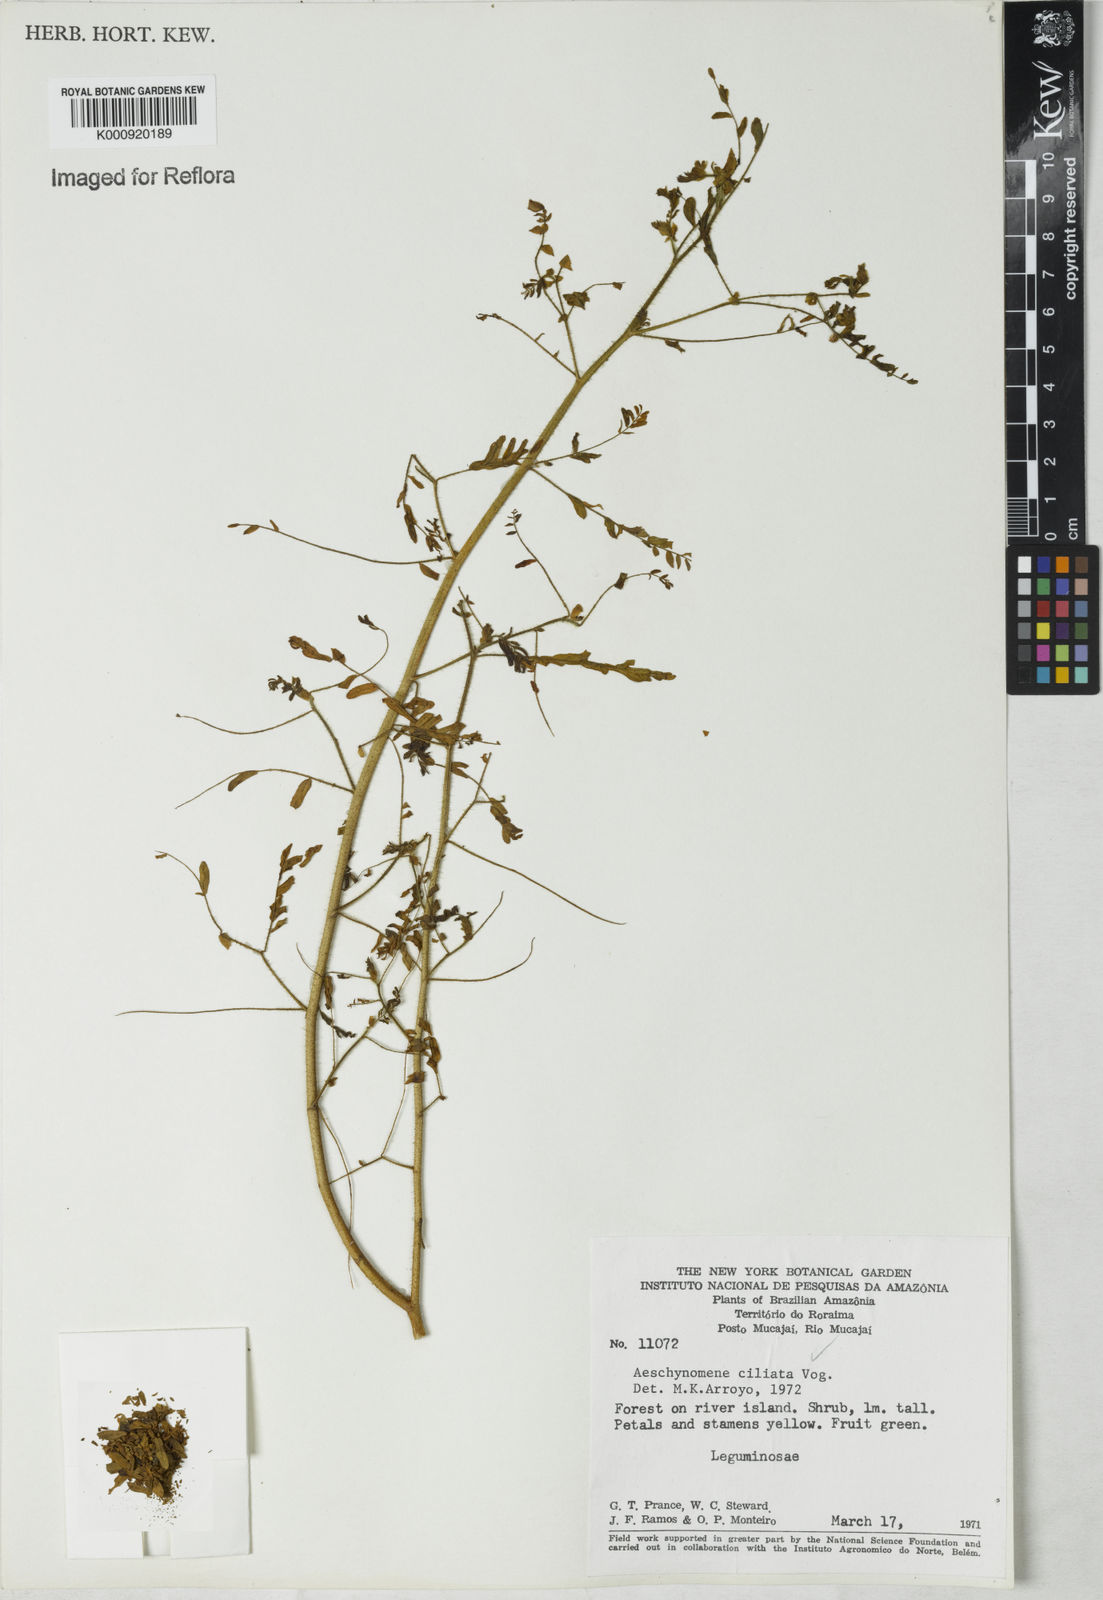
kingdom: Plantae
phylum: Tracheophyta
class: Magnoliopsida
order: Fabales
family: Fabaceae
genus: Aeschynomene
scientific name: Aeschynomene ciliata
